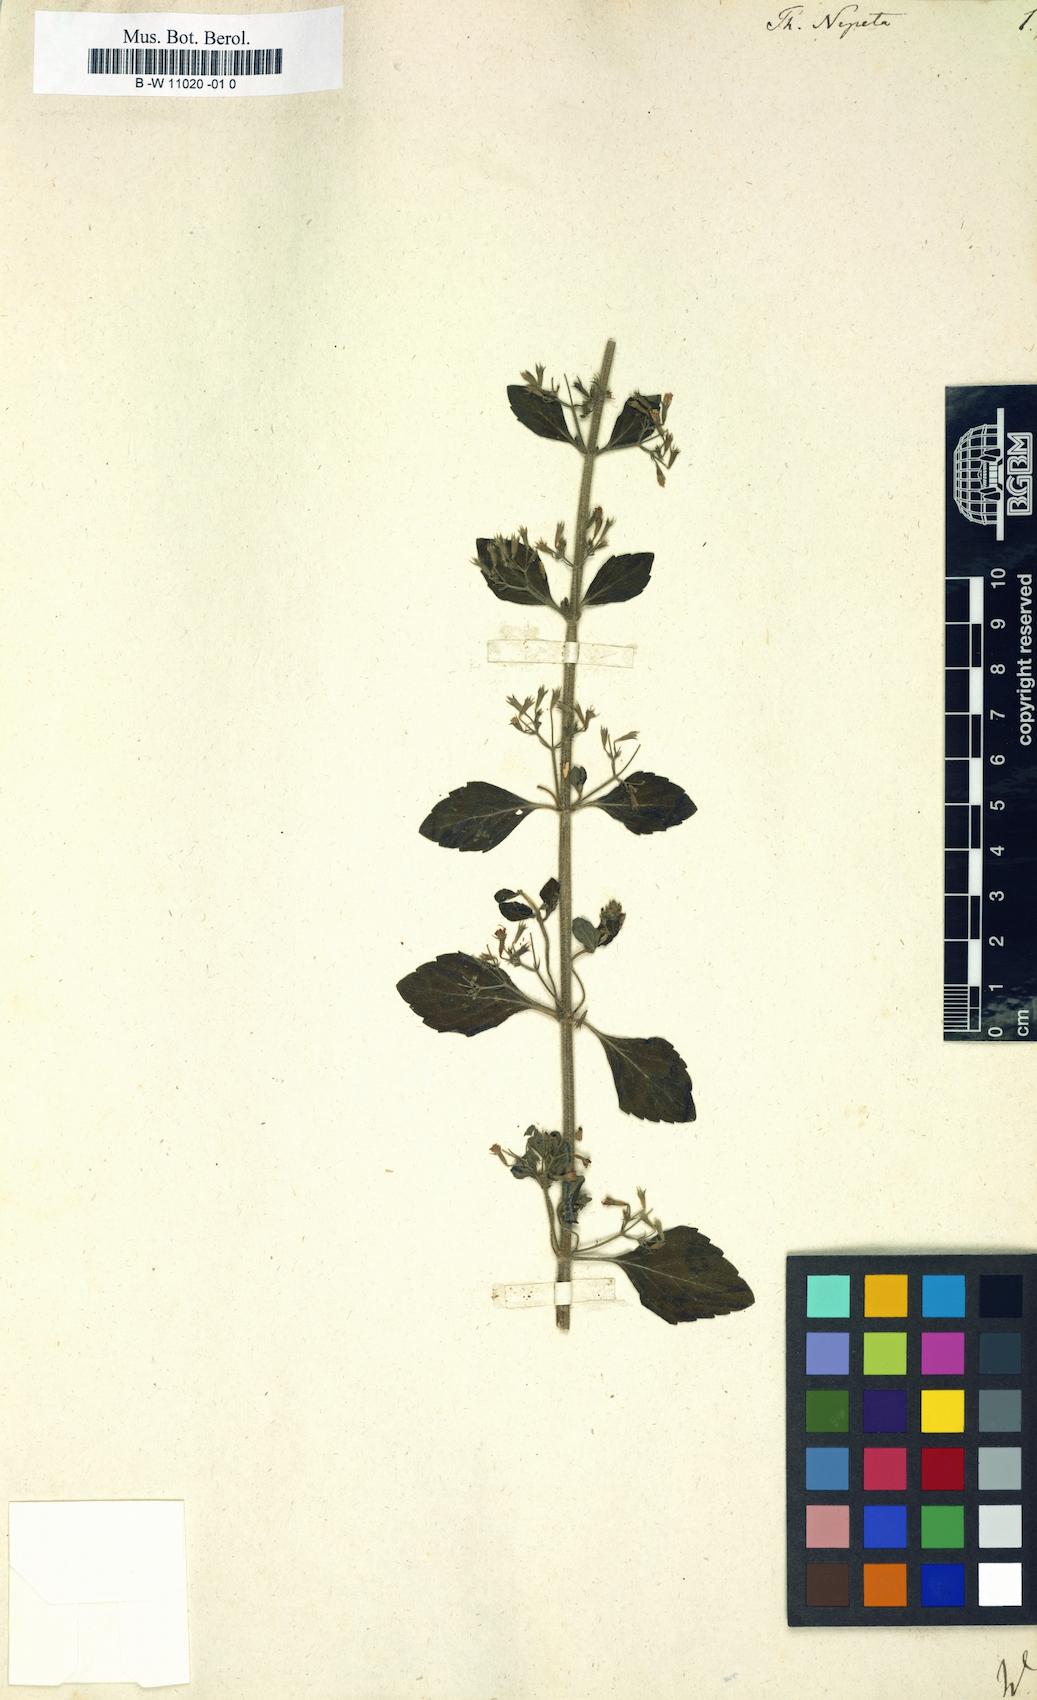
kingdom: Plantae
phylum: Tracheophyta
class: Magnoliopsida
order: Lamiales
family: Lamiaceae
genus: Clinopodium
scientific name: Clinopodium nepeta
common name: Lesser calamint
